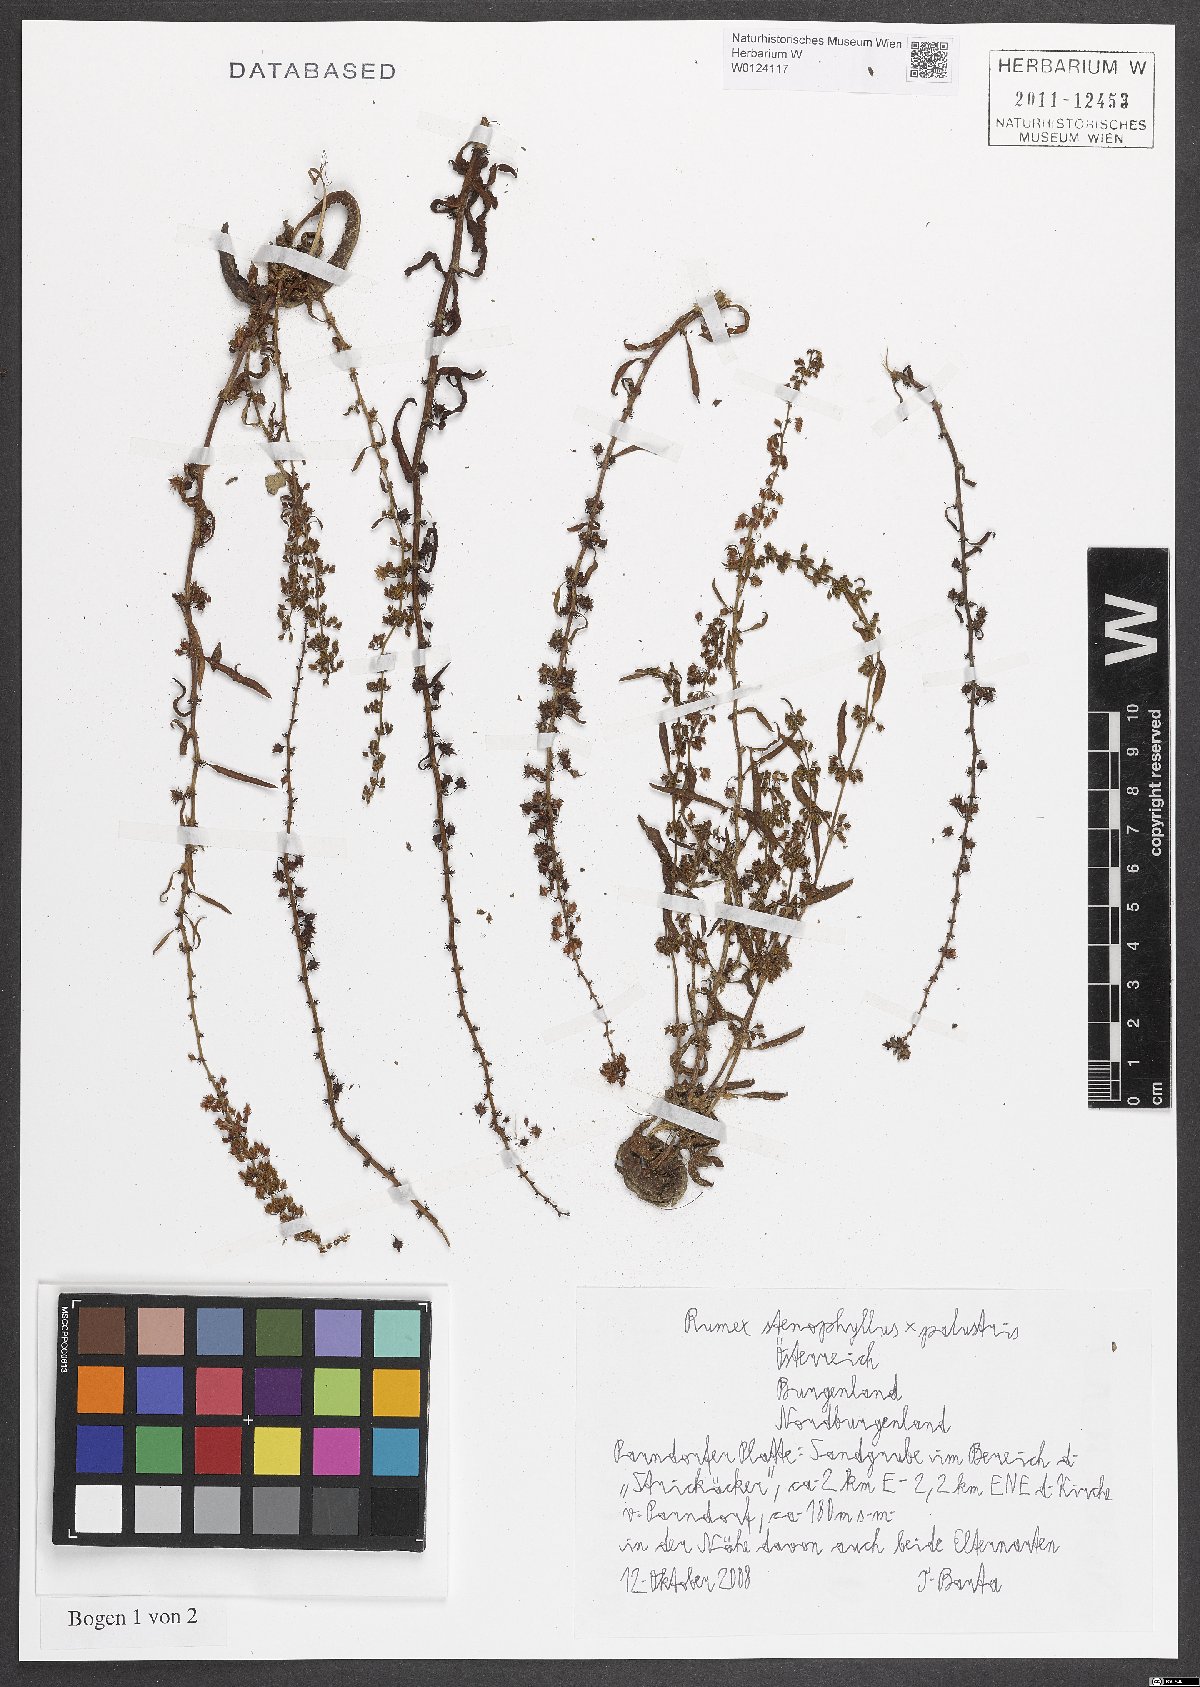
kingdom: Plantae
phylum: Tracheophyta
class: Magnoliopsida
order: Caryophyllales
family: Polygonaceae
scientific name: Polygonaceae
